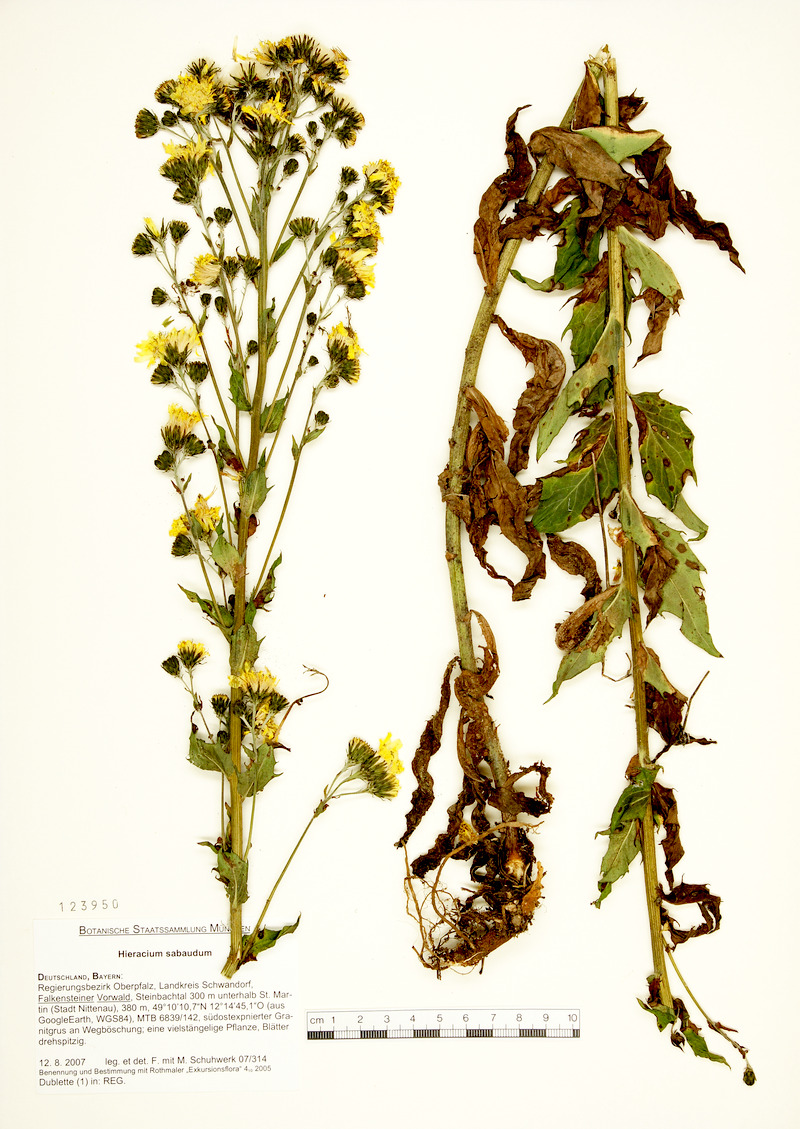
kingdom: Plantae
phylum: Tracheophyta
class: Magnoliopsida
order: Asterales
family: Asteraceae
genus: Hieracium
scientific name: Hieracium sabaudum
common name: New england hawkweed
